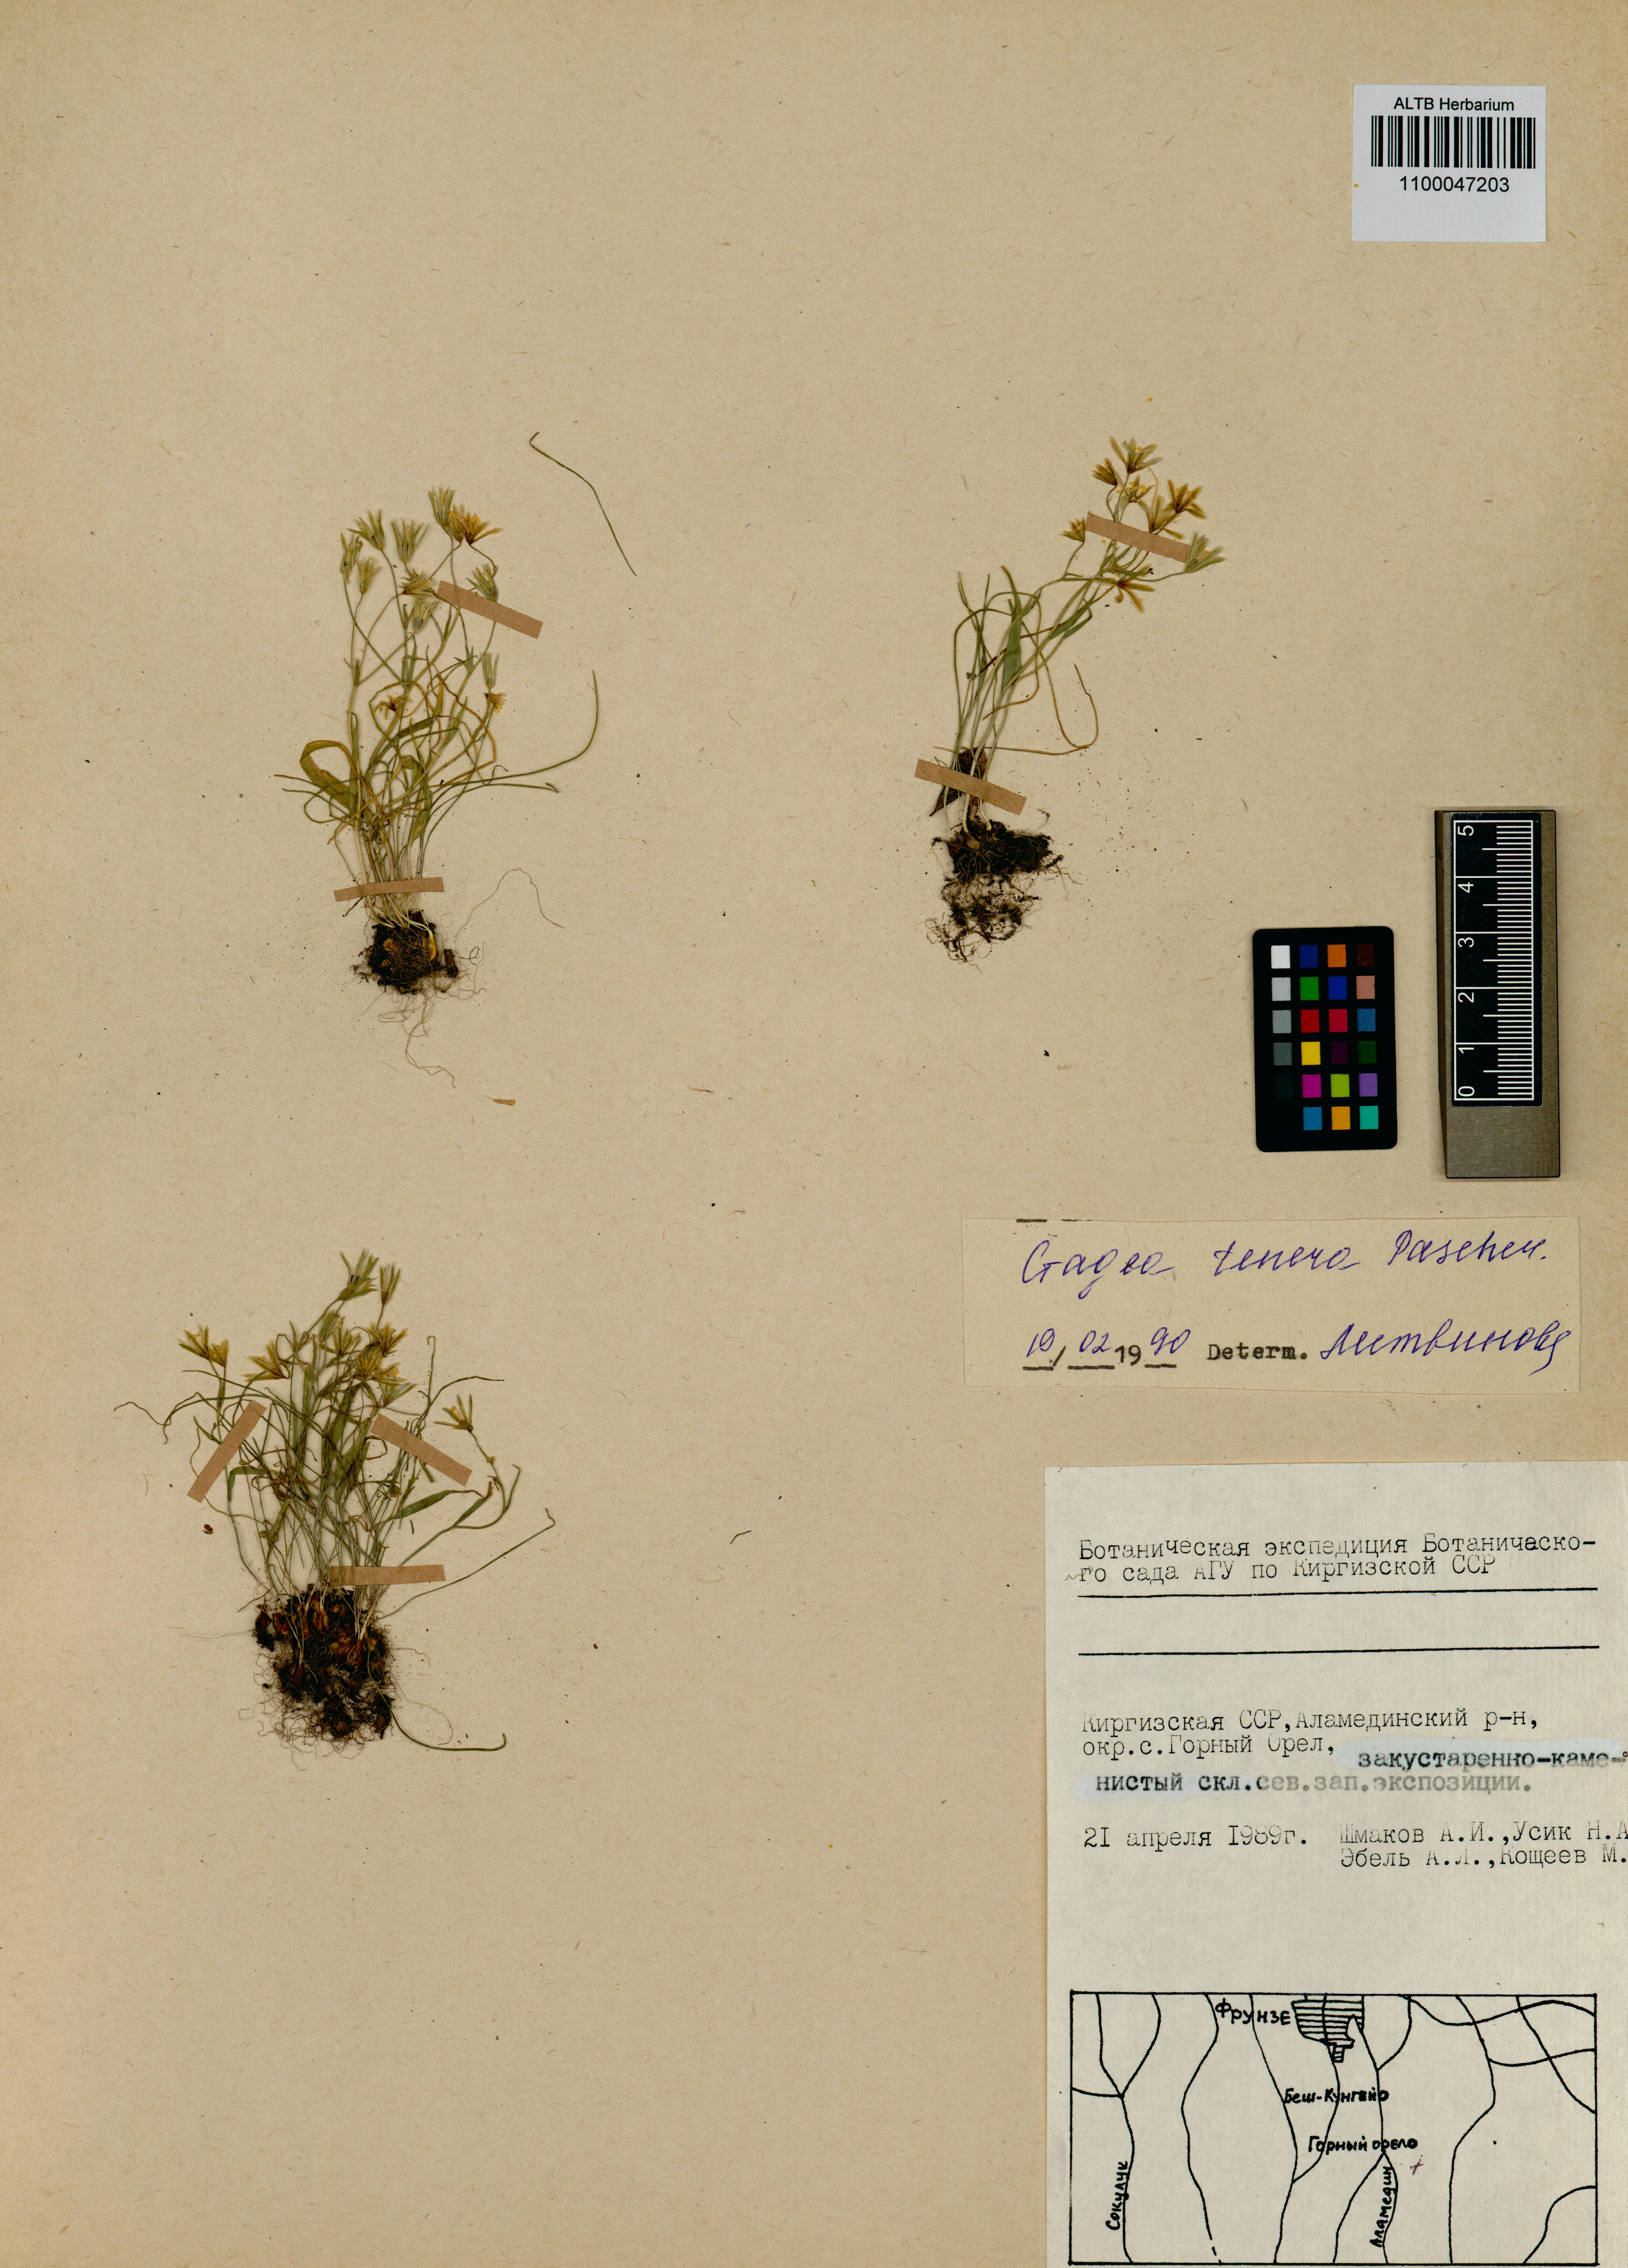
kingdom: Plantae
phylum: Tracheophyta
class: Liliopsida
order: Liliales
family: Liliaceae
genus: Gagea
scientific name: Gagea tenera
